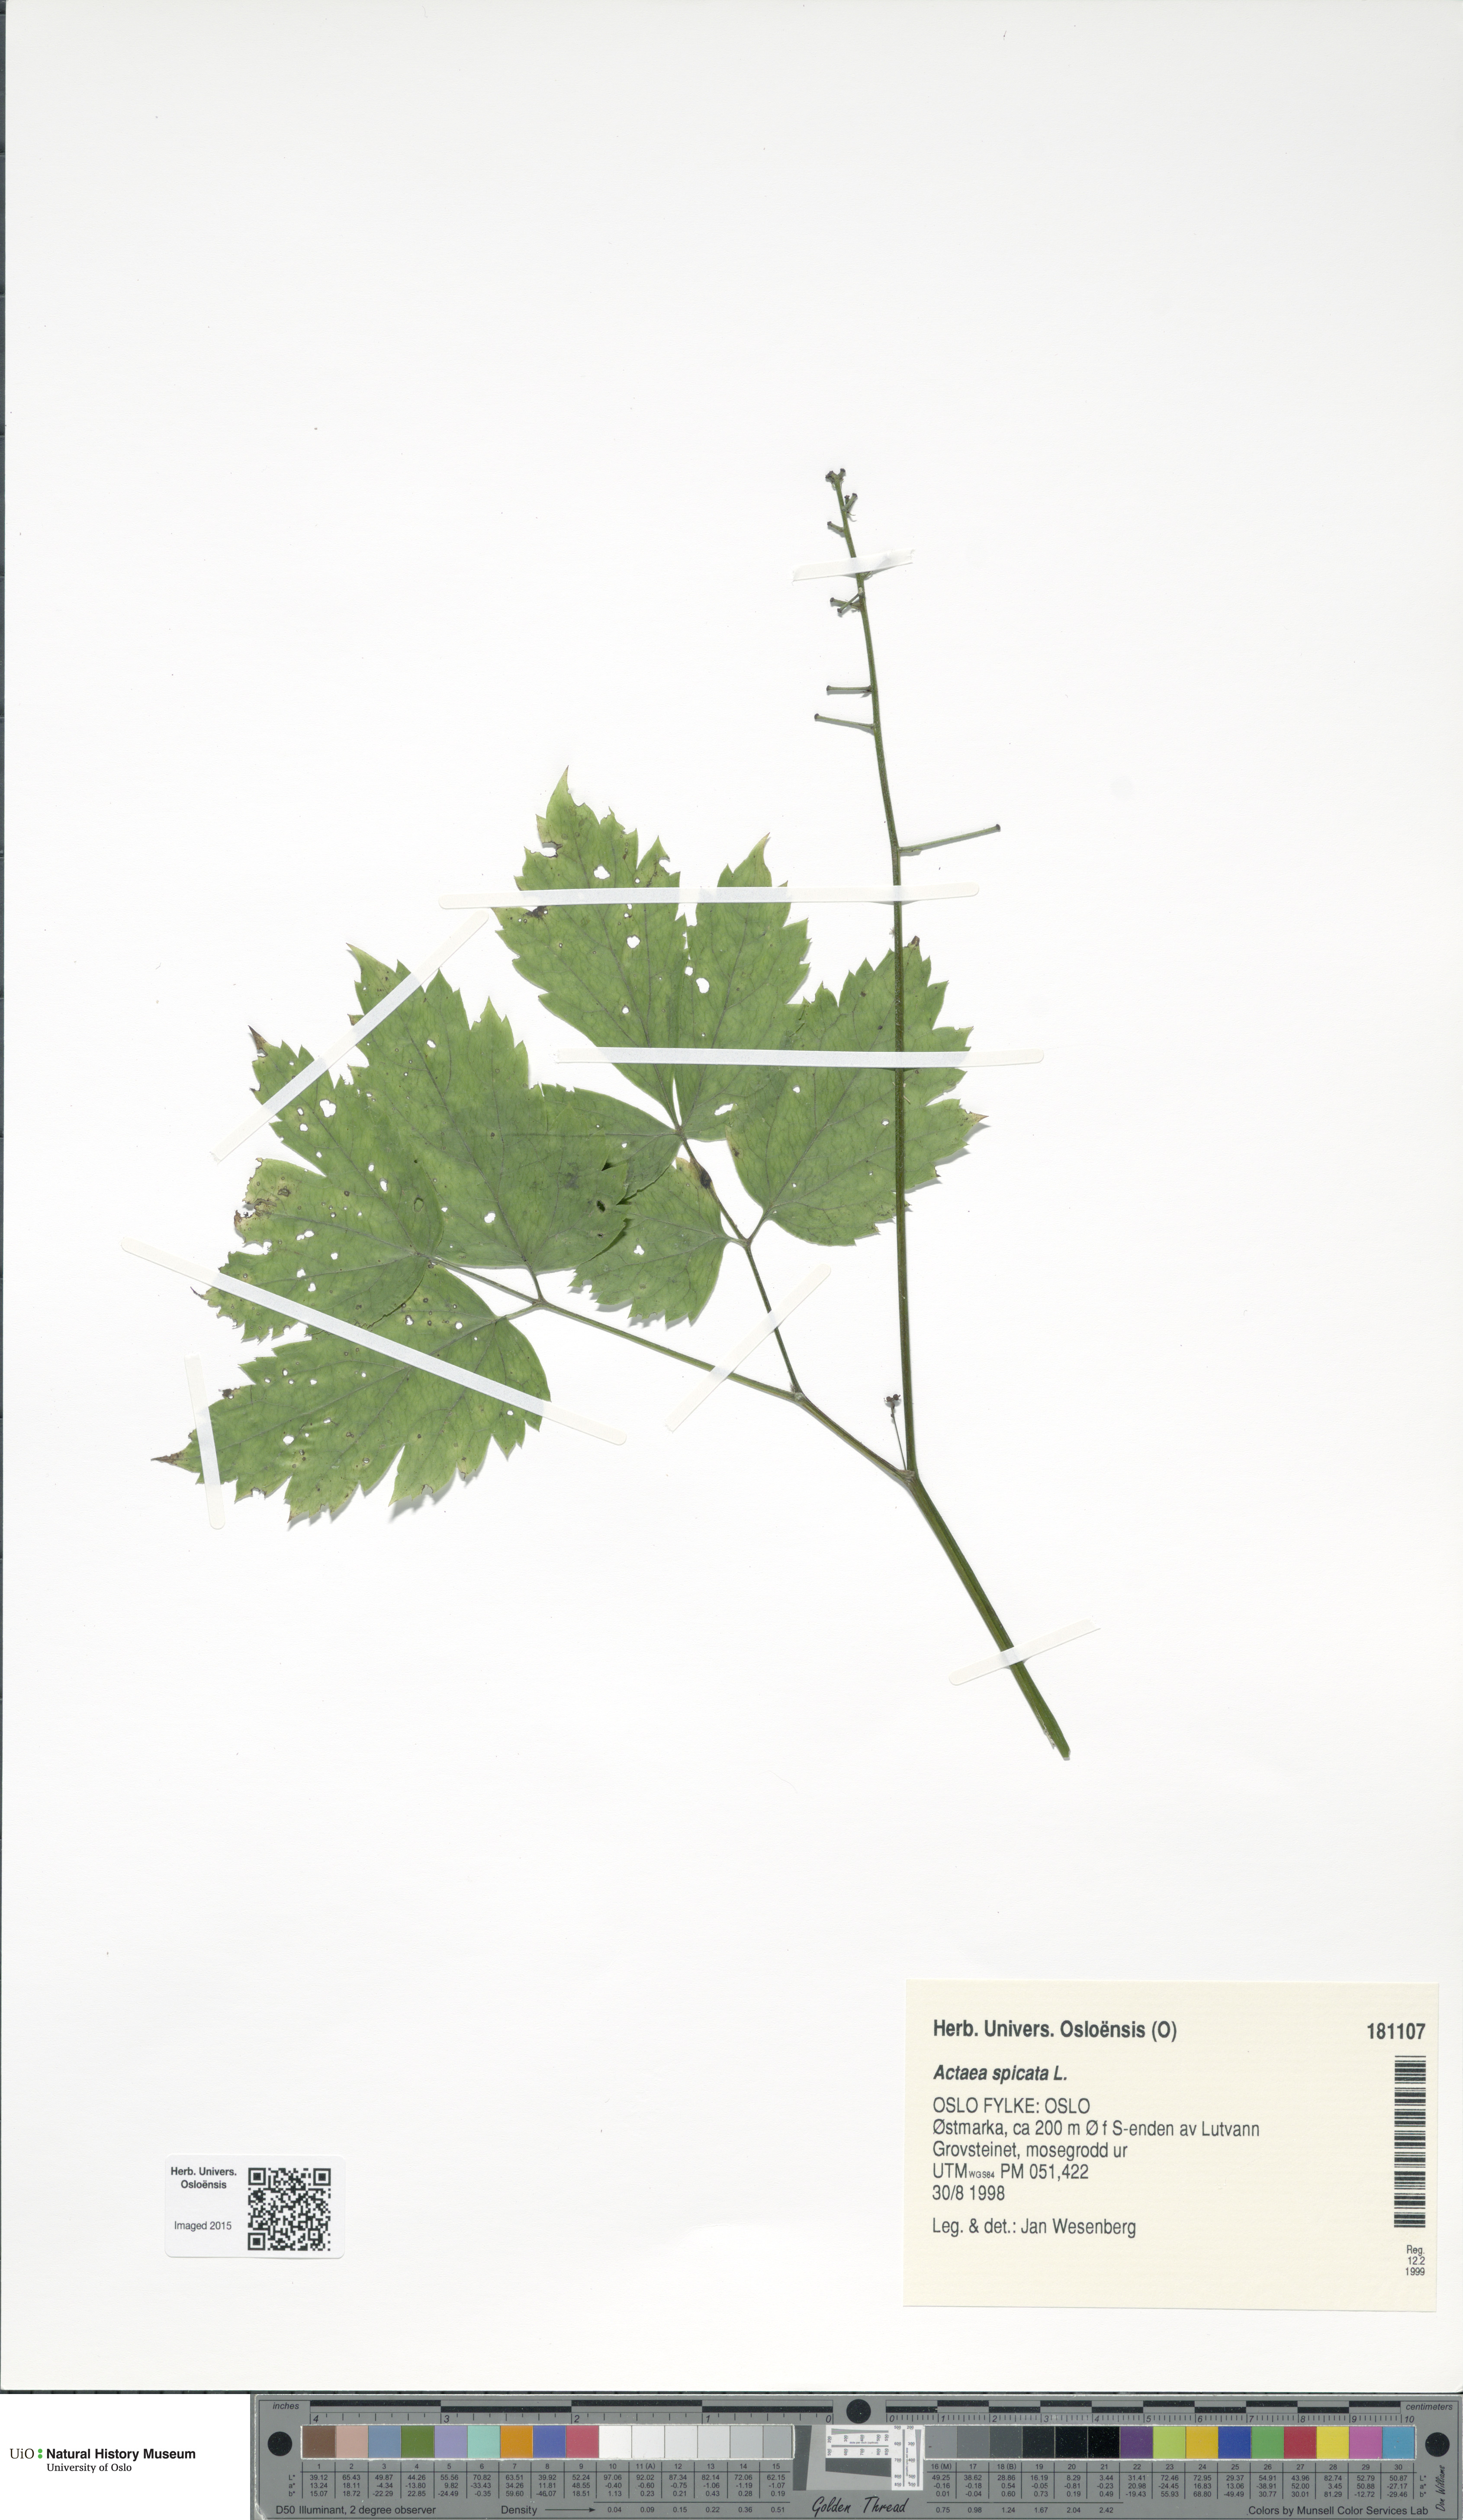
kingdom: Plantae
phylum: Tracheophyta
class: Magnoliopsida
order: Ranunculales
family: Ranunculaceae
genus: Actaea
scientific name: Actaea spicata
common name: Baneberry
